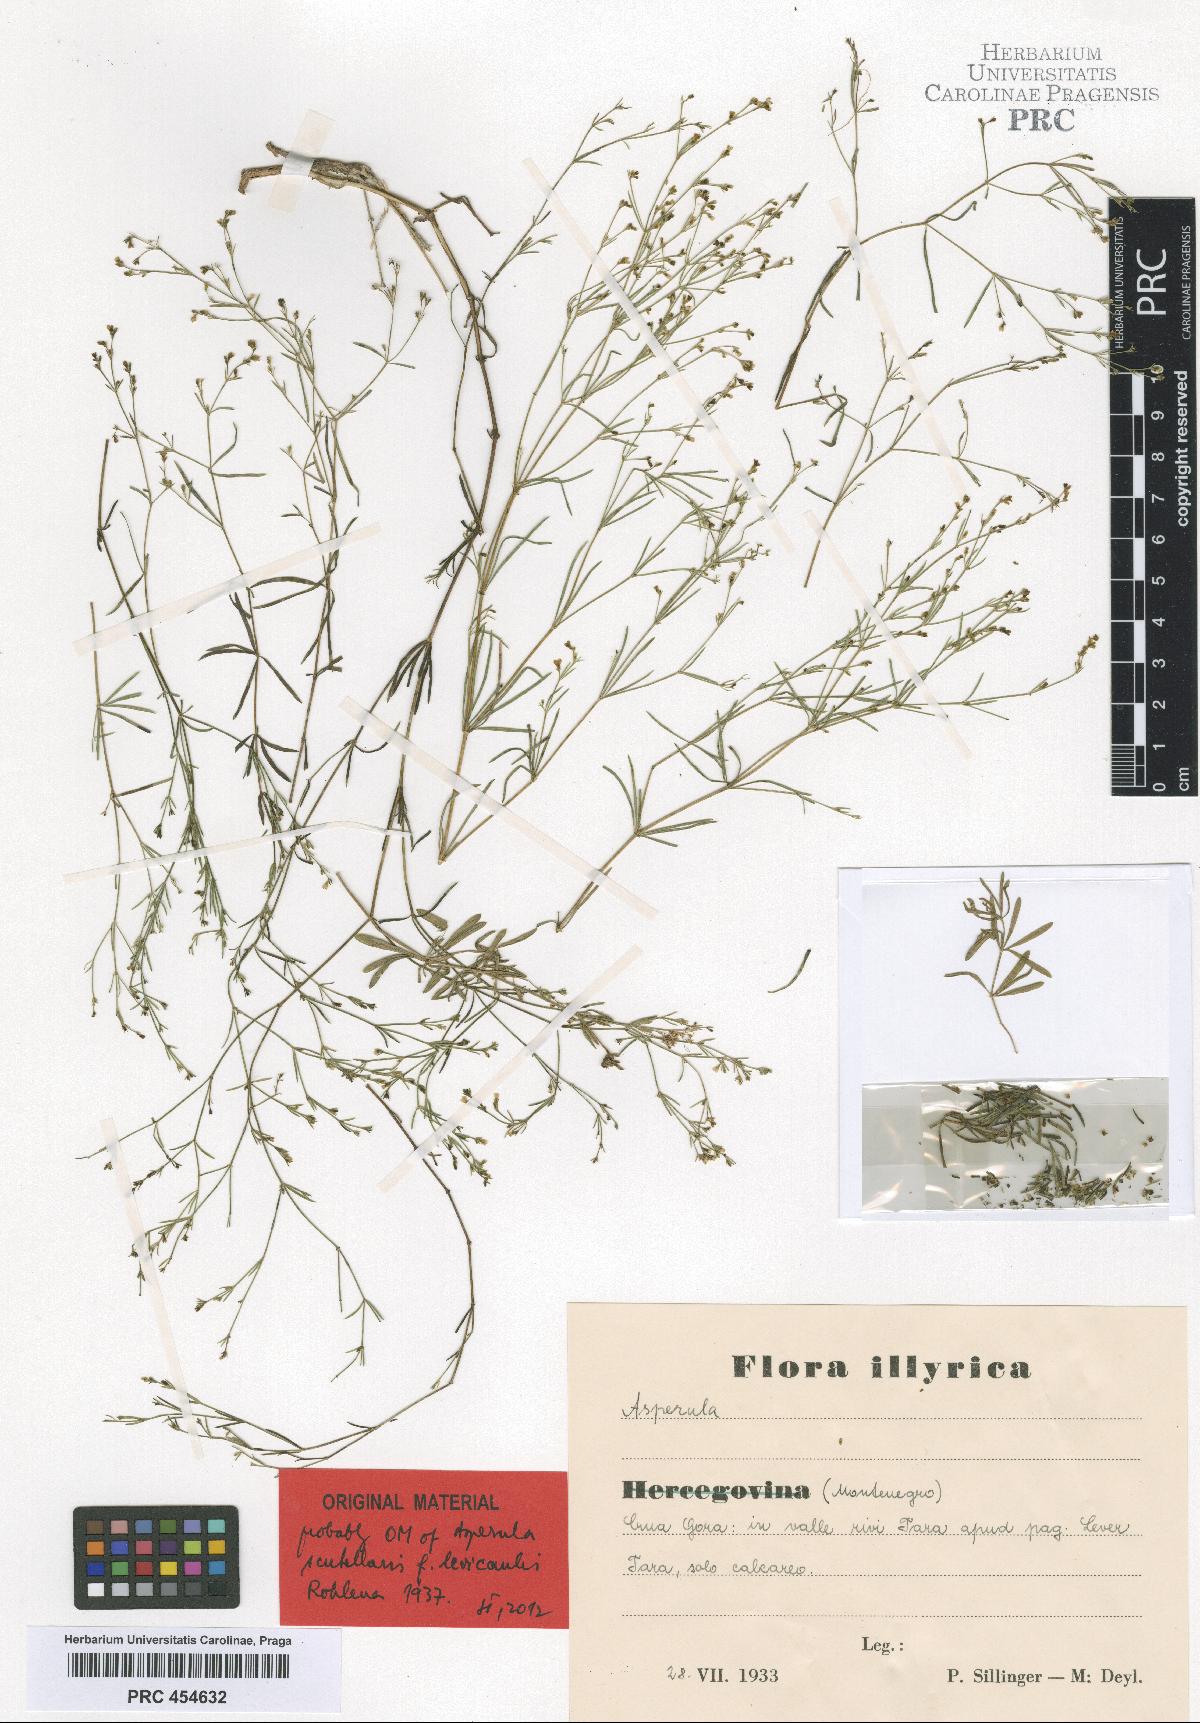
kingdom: Plantae
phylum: Tracheophyta
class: Magnoliopsida
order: Gentianales
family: Rubiaceae
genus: Thliphthisa
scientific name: Thliphthisa rupestris
